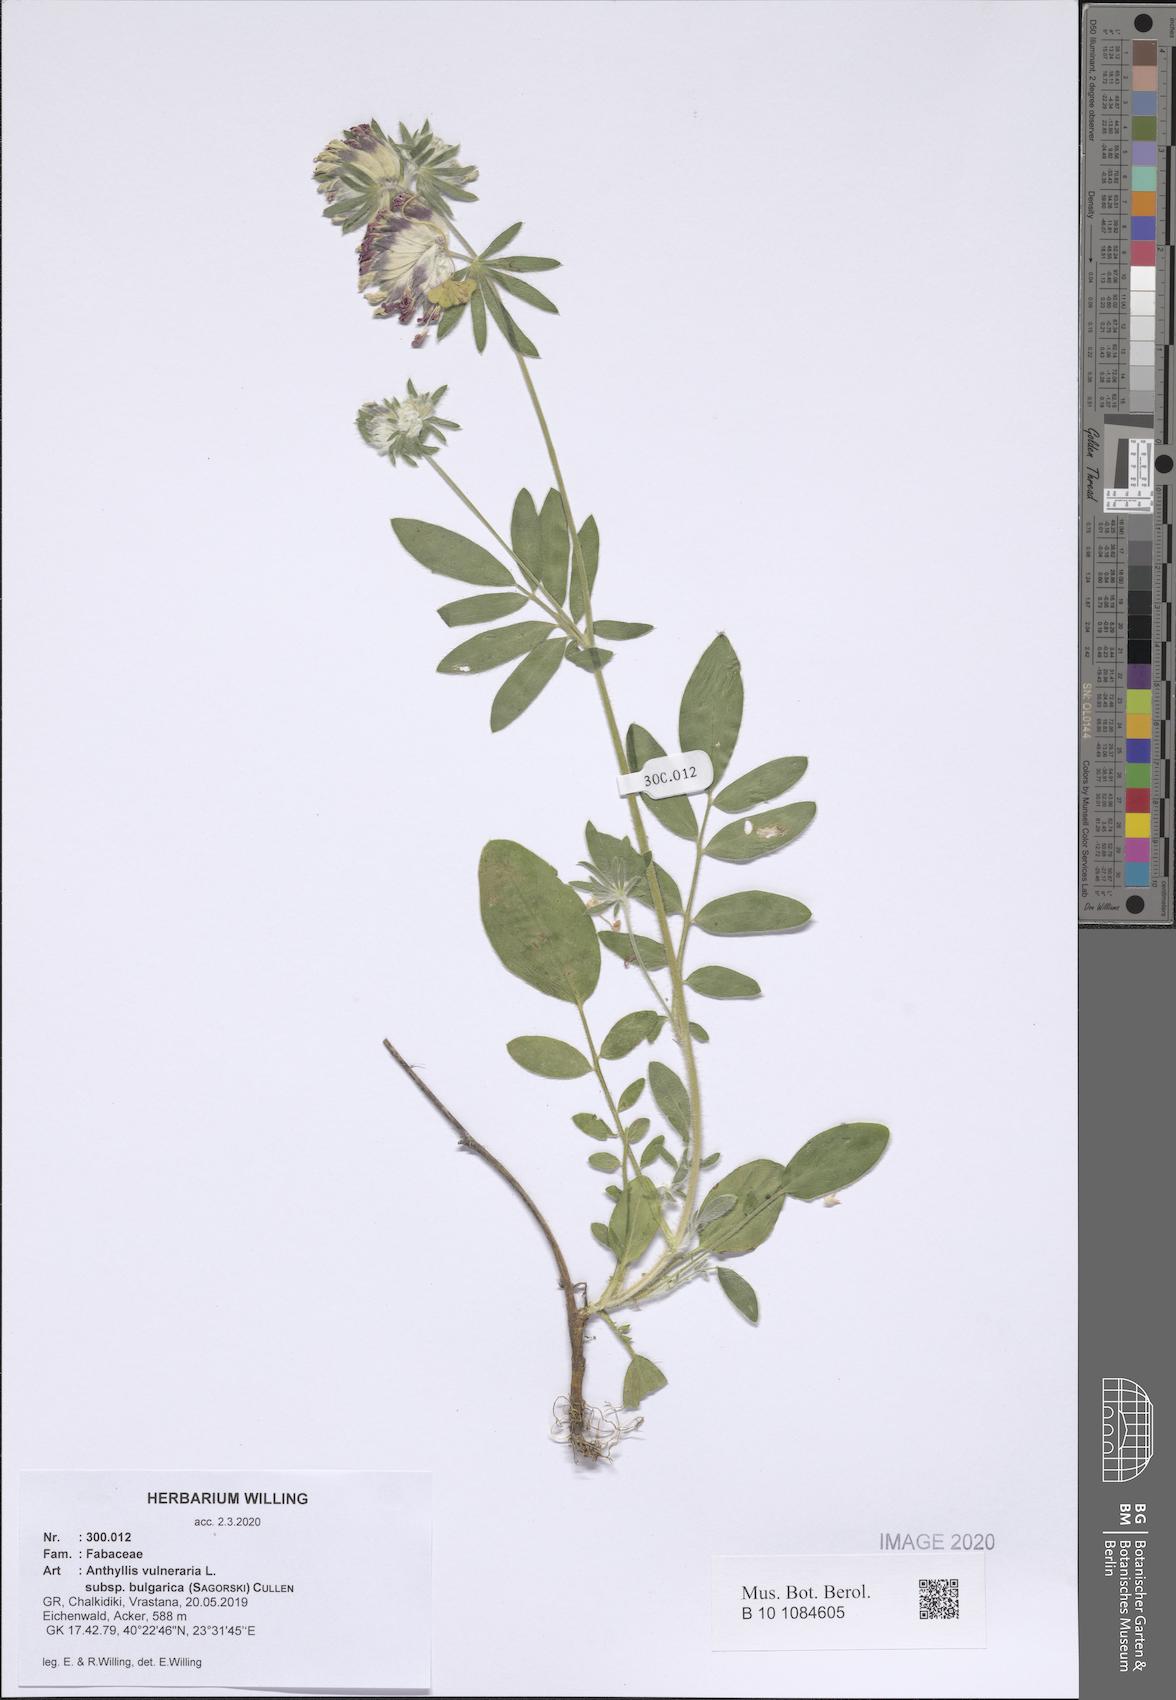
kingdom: Plantae
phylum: Tracheophyta
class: Magnoliopsida
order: Fabales
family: Fabaceae
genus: Anthyllis
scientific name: Anthyllis vulneraria
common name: Kidney vetch
